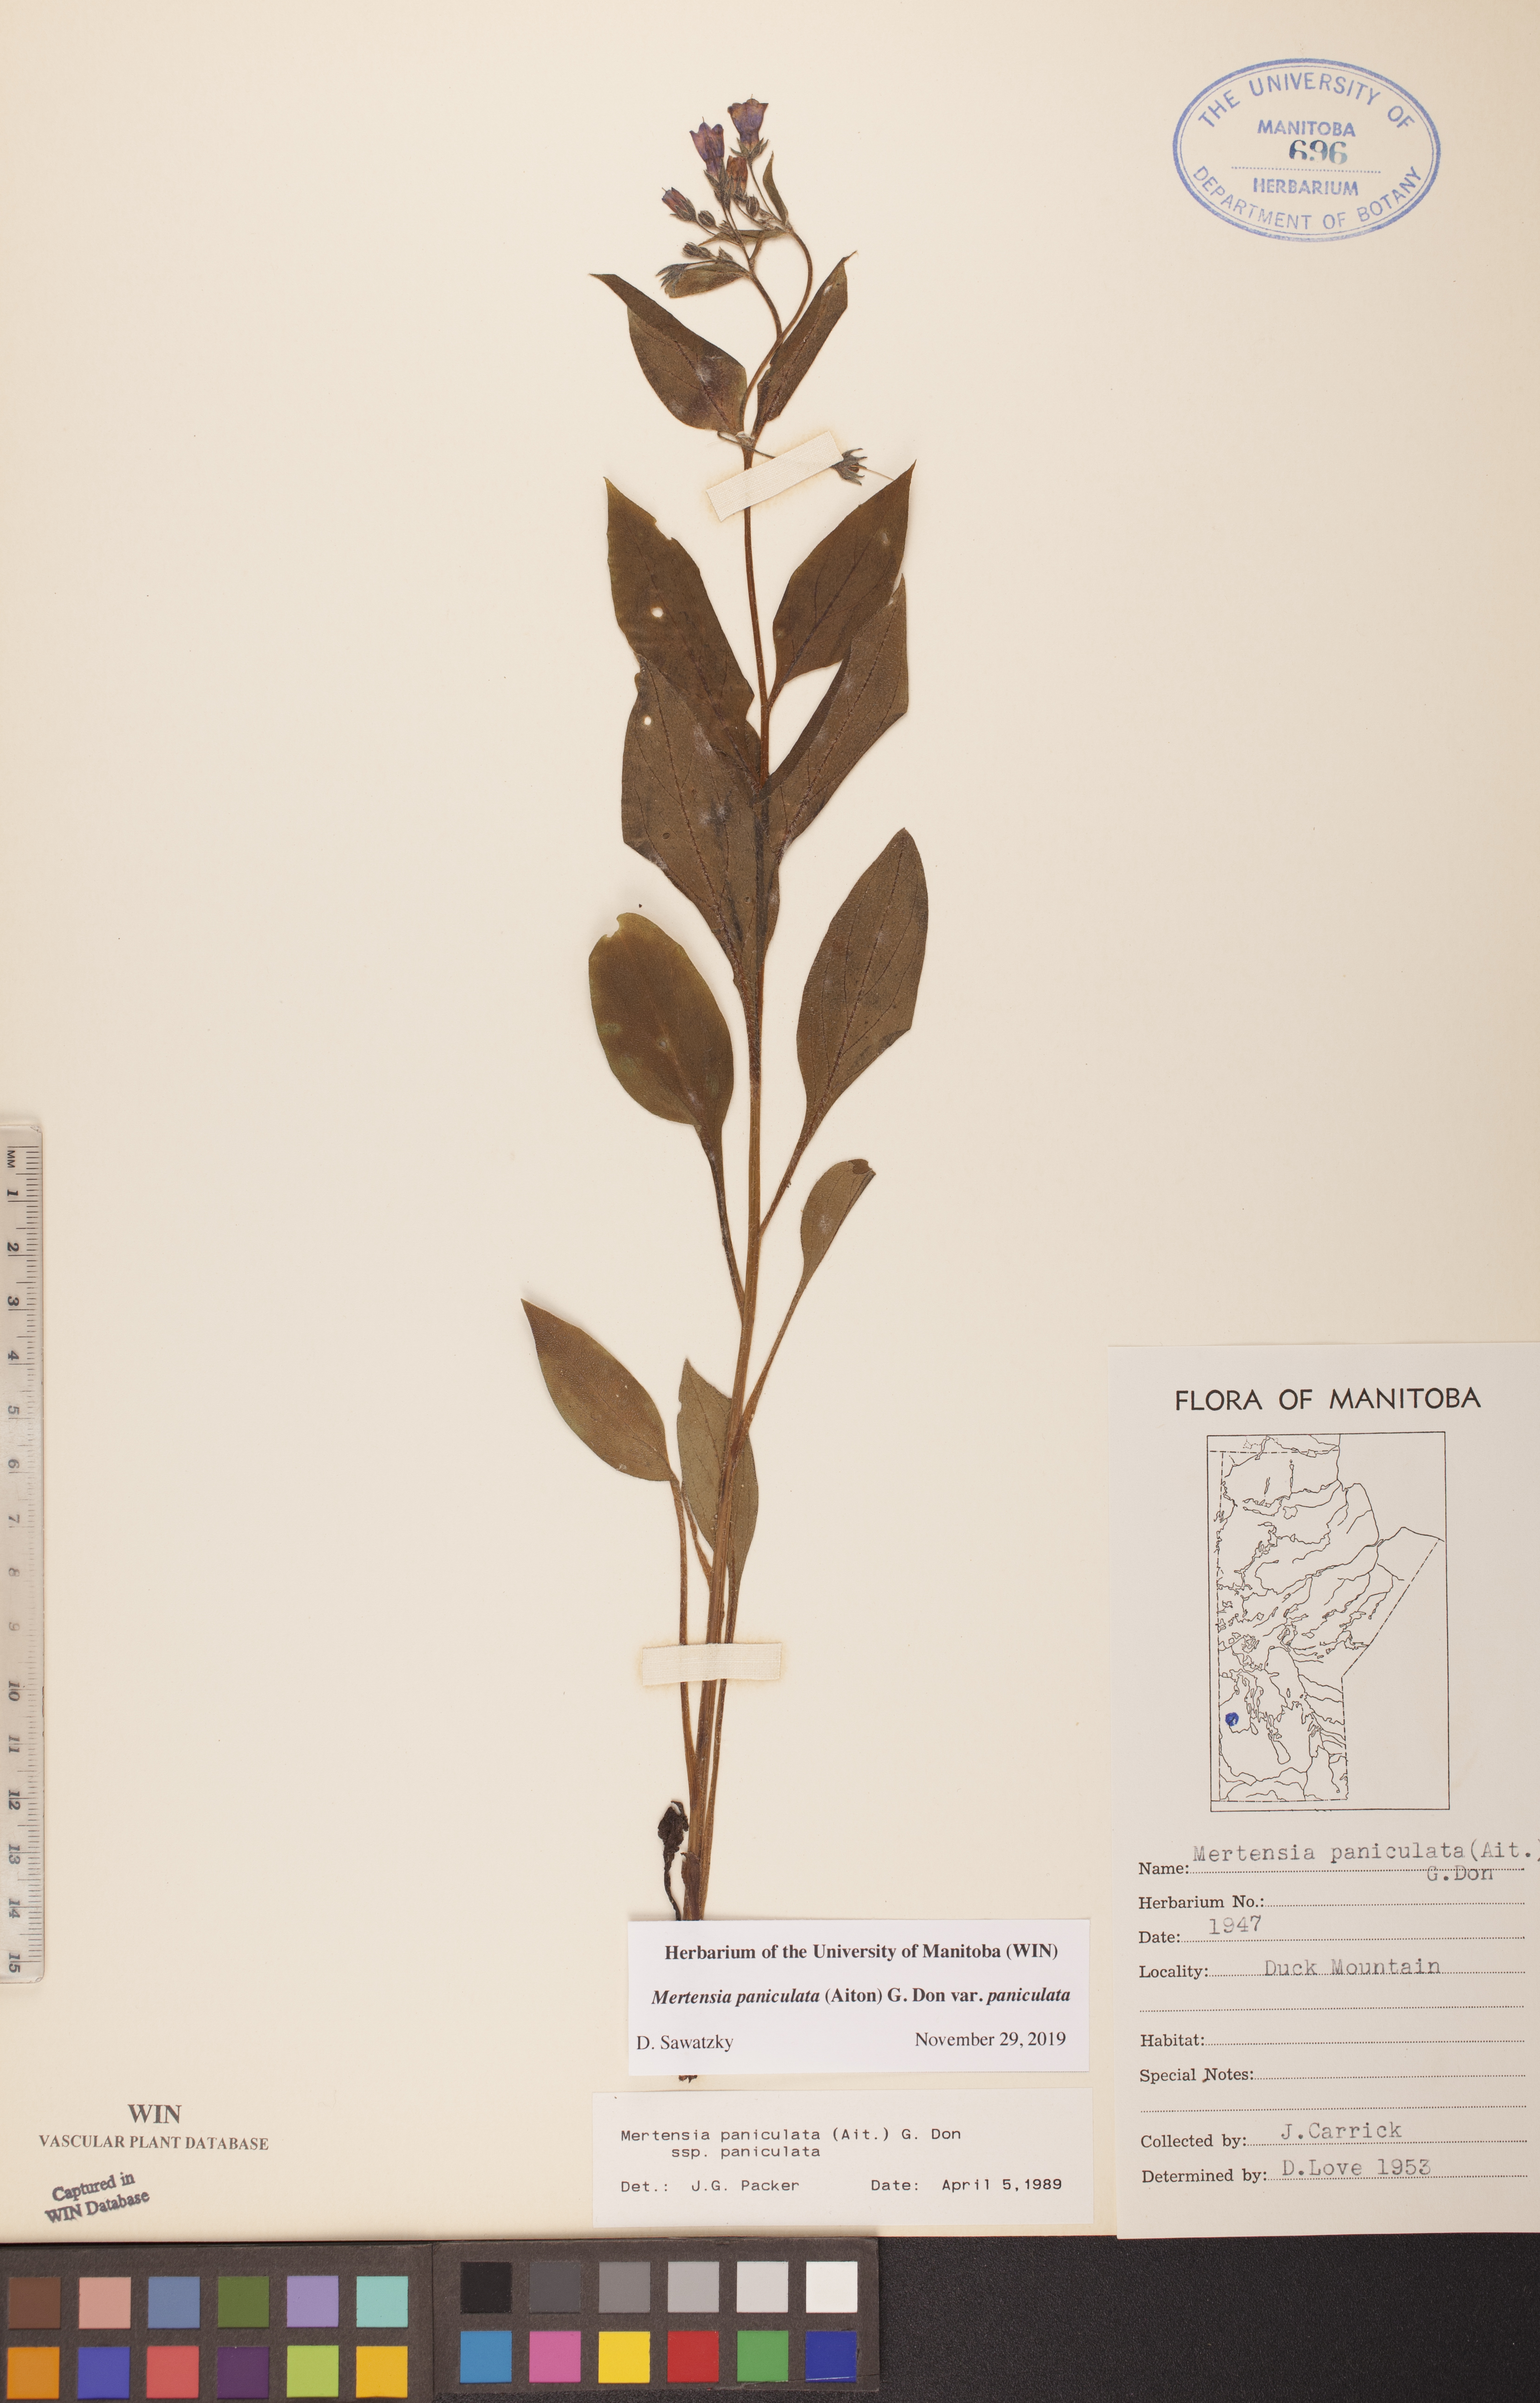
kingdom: Plantae
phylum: Tracheophyta
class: Magnoliopsida
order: Boraginales
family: Boraginaceae
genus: Mertensia
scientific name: Mertensia paniculata
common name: Panicled bluebells
